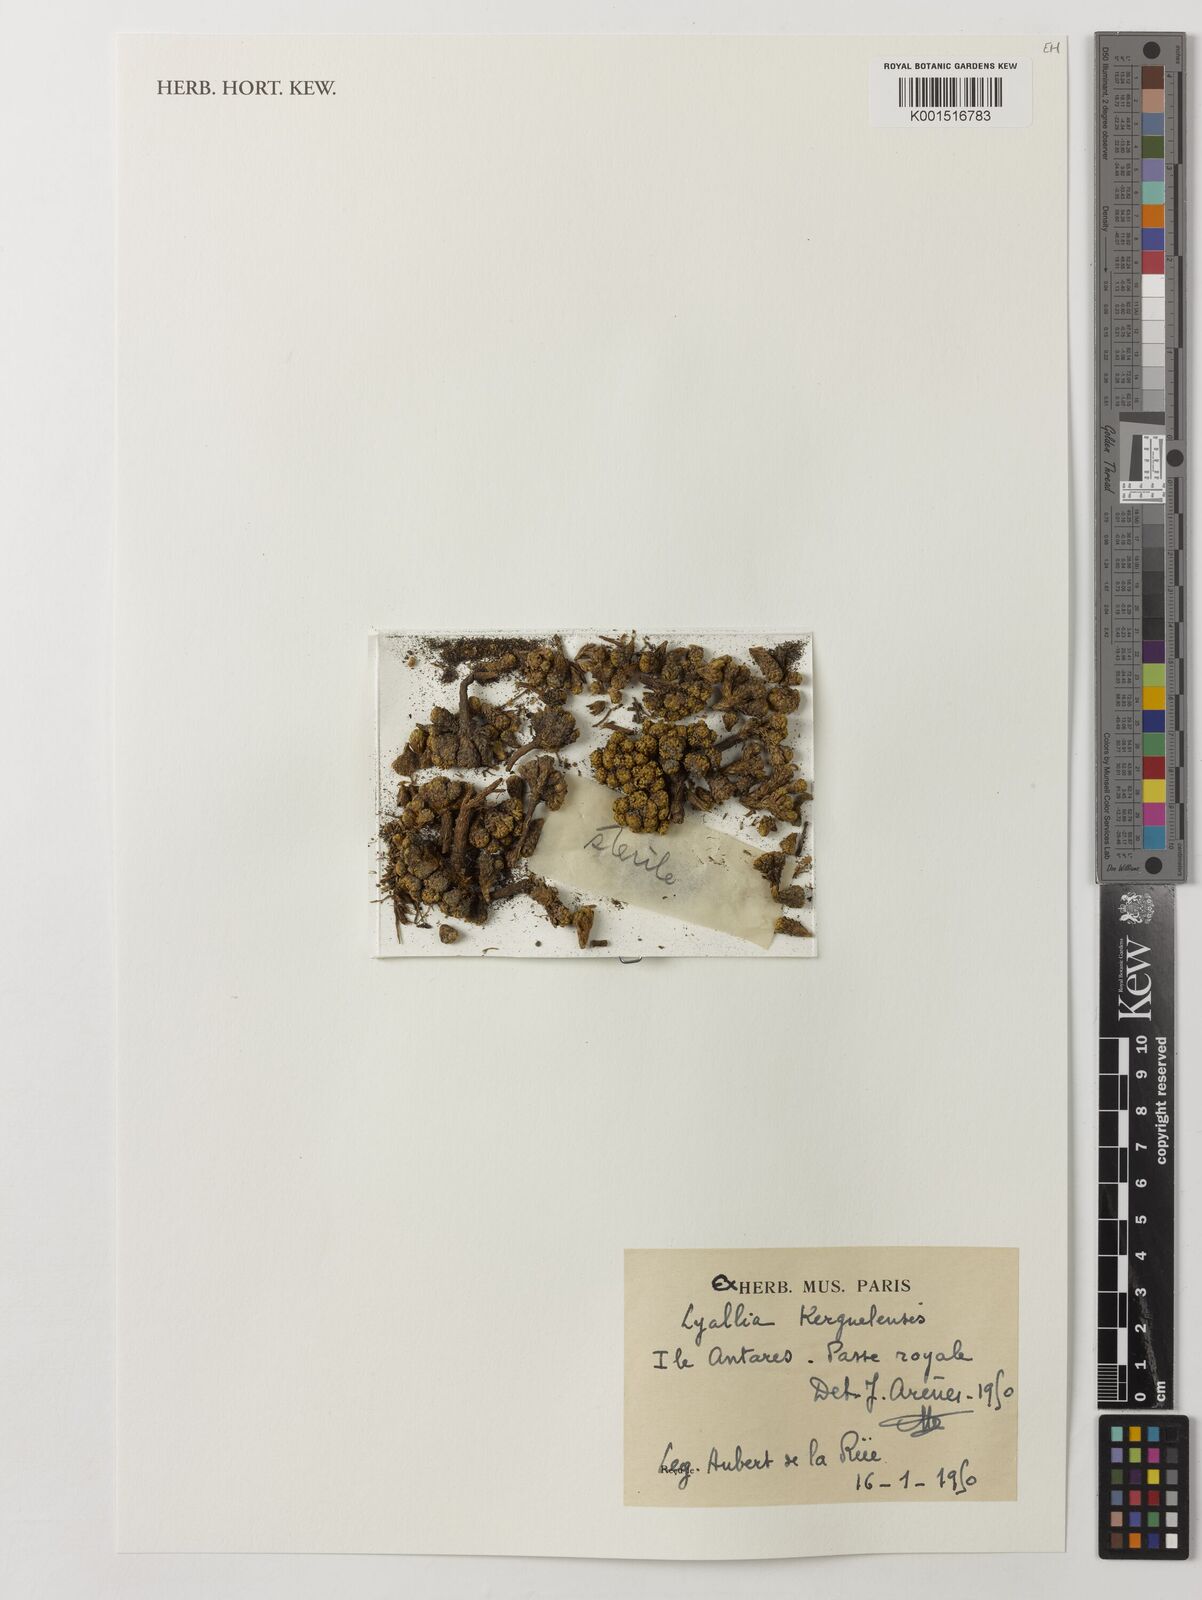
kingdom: Plantae
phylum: Tracheophyta
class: Magnoliopsida
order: Caryophyllales
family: Montiaceae
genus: Lyallia
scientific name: Lyallia kerguelensis
